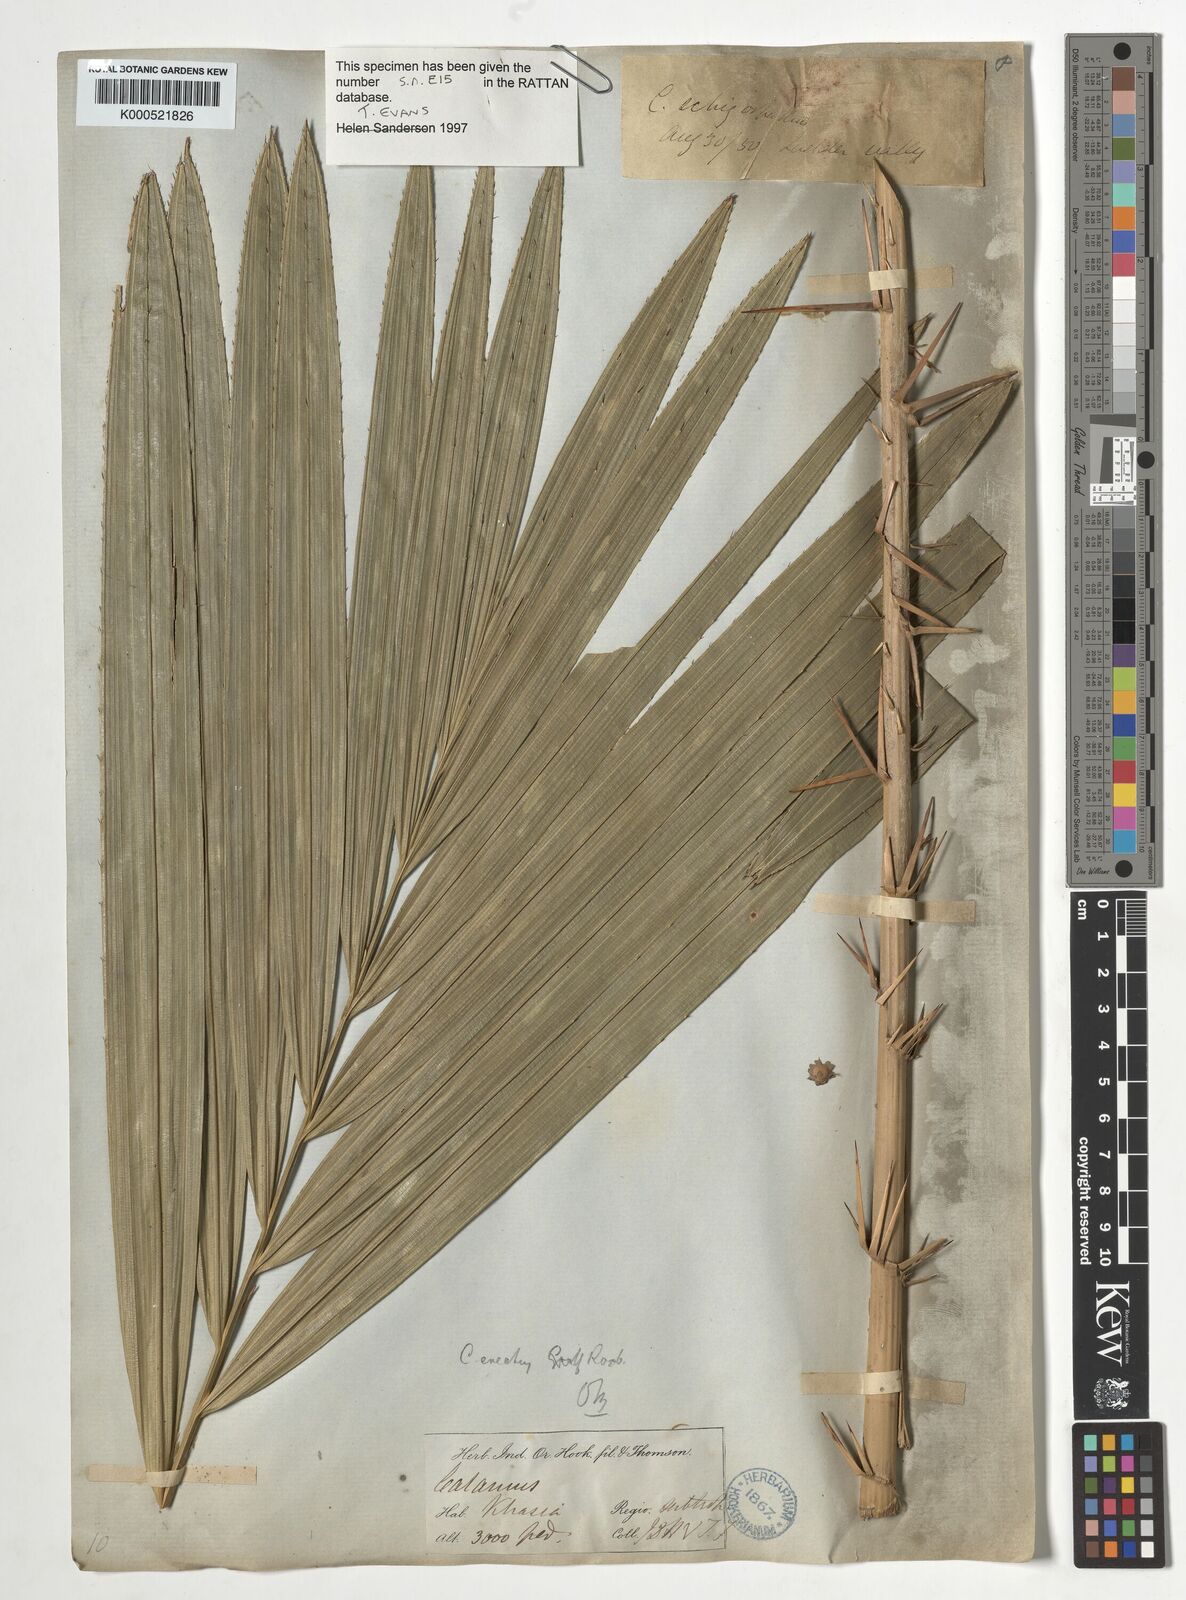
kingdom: Plantae
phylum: Tracheophyta
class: Liliopsida
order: Arecales
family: Arecaceae
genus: Calamus
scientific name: Calamus erectus
